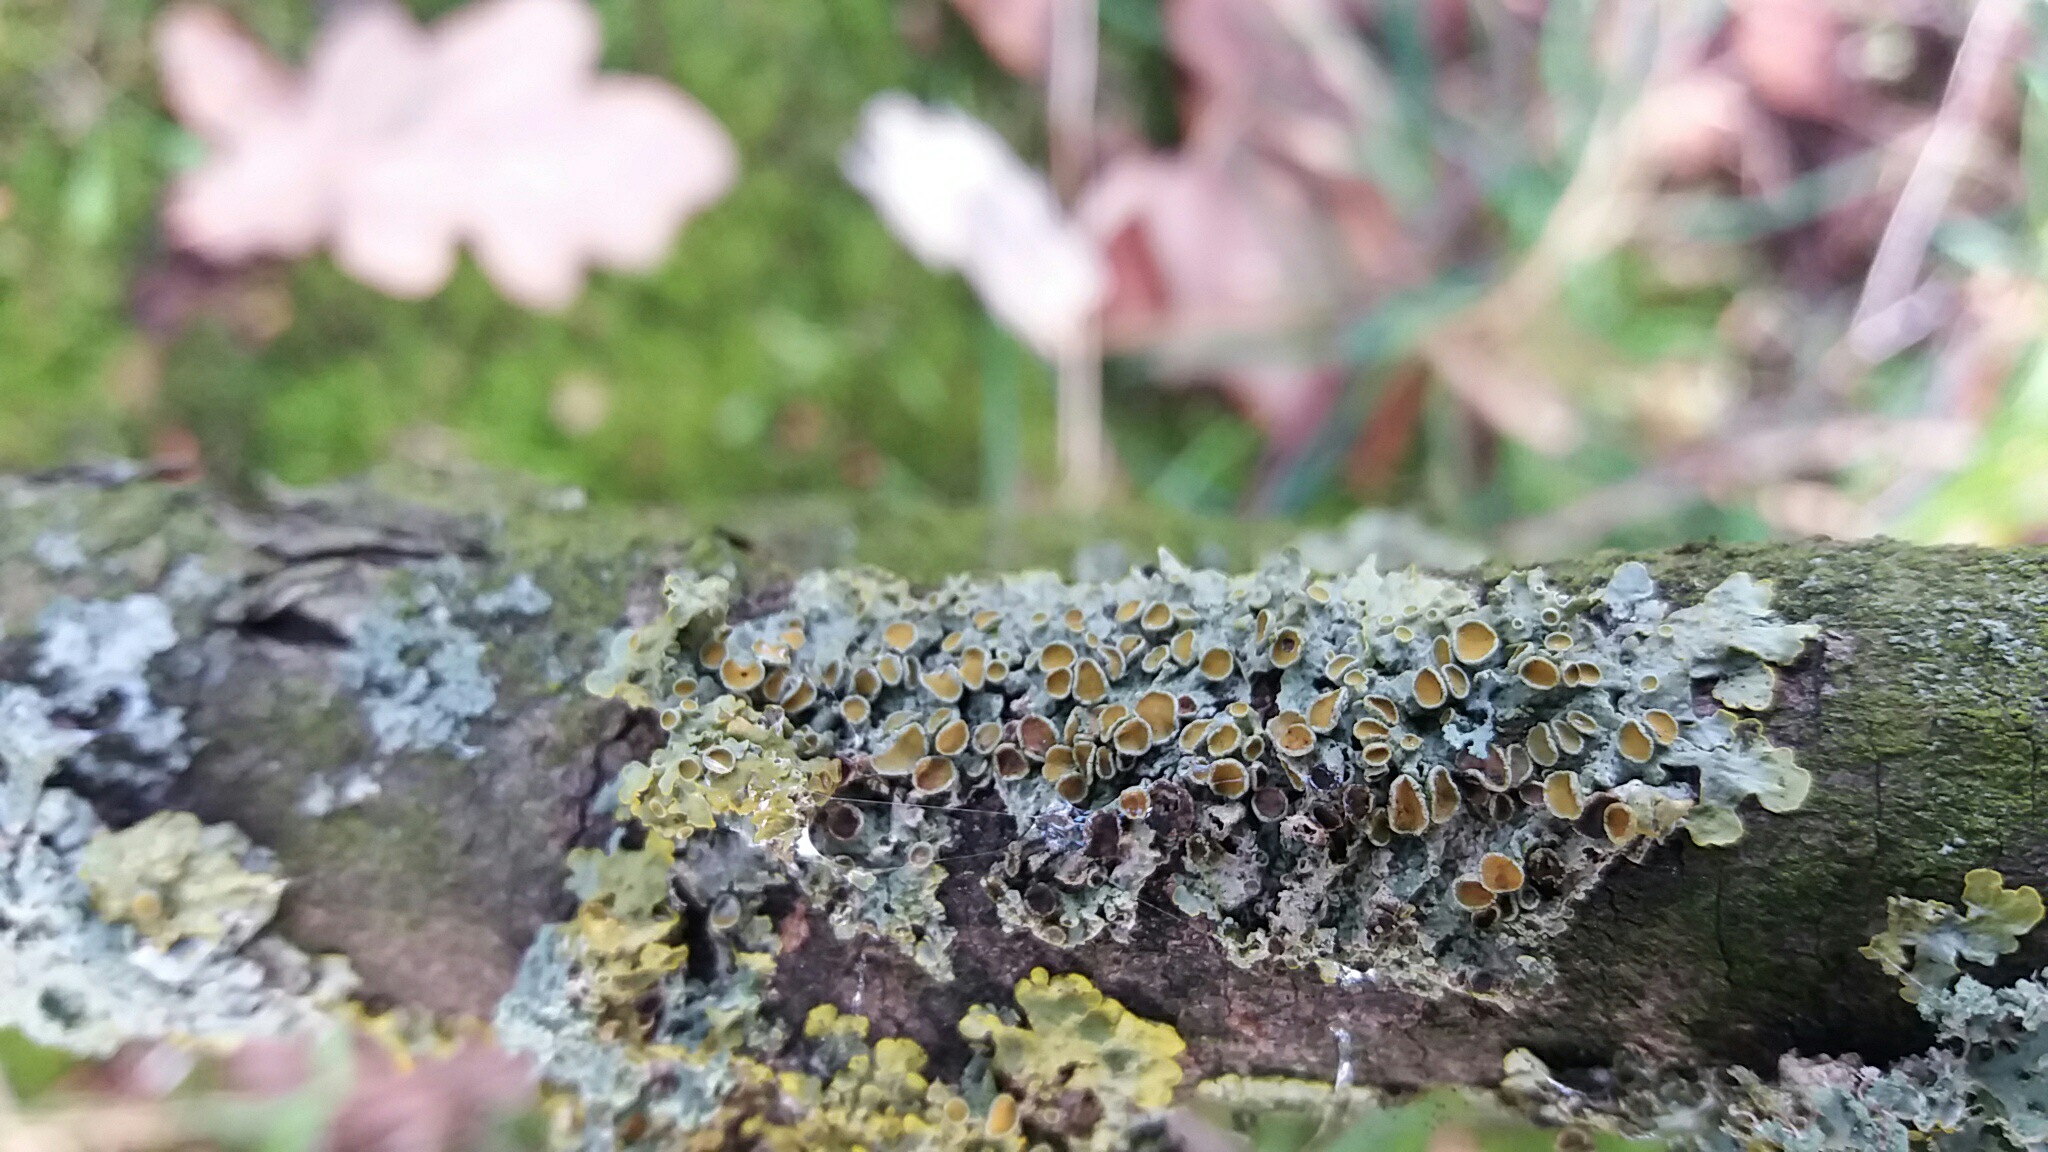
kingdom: Fungi
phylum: Ascomycota
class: Lecanoromycetes
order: Teloschistales
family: Teloschistaceae
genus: Xanthoria
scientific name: Xanthoria parietina
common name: almindelig væggelav
